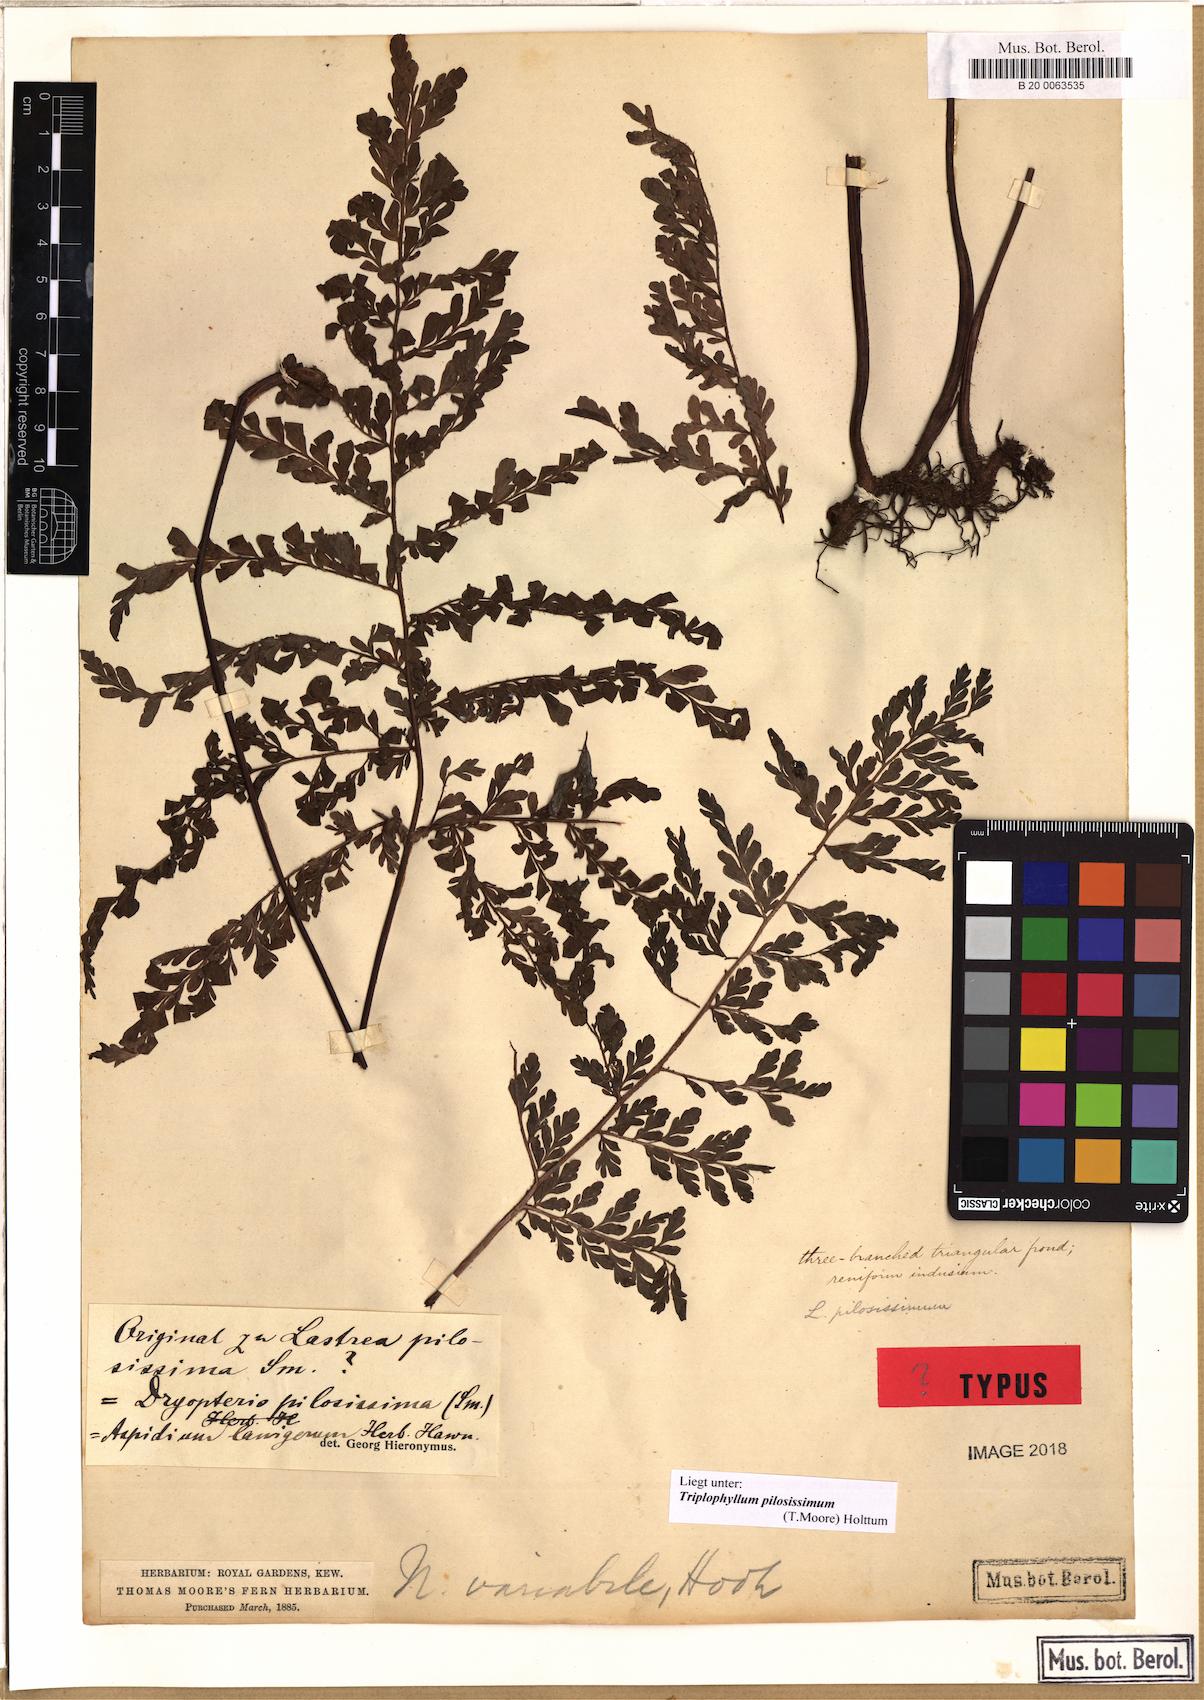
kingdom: Plantae
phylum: Tracheophyta
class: Polypodiopsida
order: Polypodiales
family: Tectariaceae
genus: Triplophyllum
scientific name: Triplophyllum pilosissimum
